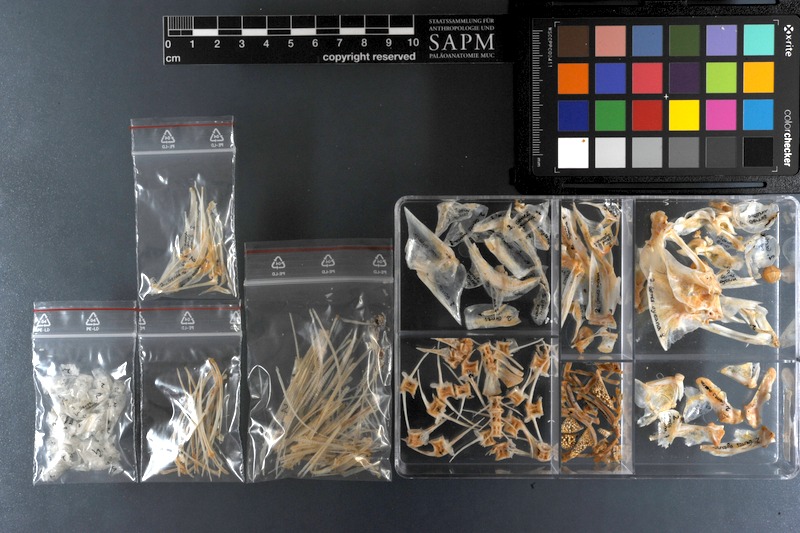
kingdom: Animalia
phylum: Chordata
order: Perciformes
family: Gerreidae
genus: Gerres
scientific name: Gerres oyena
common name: Common silver-biddy
